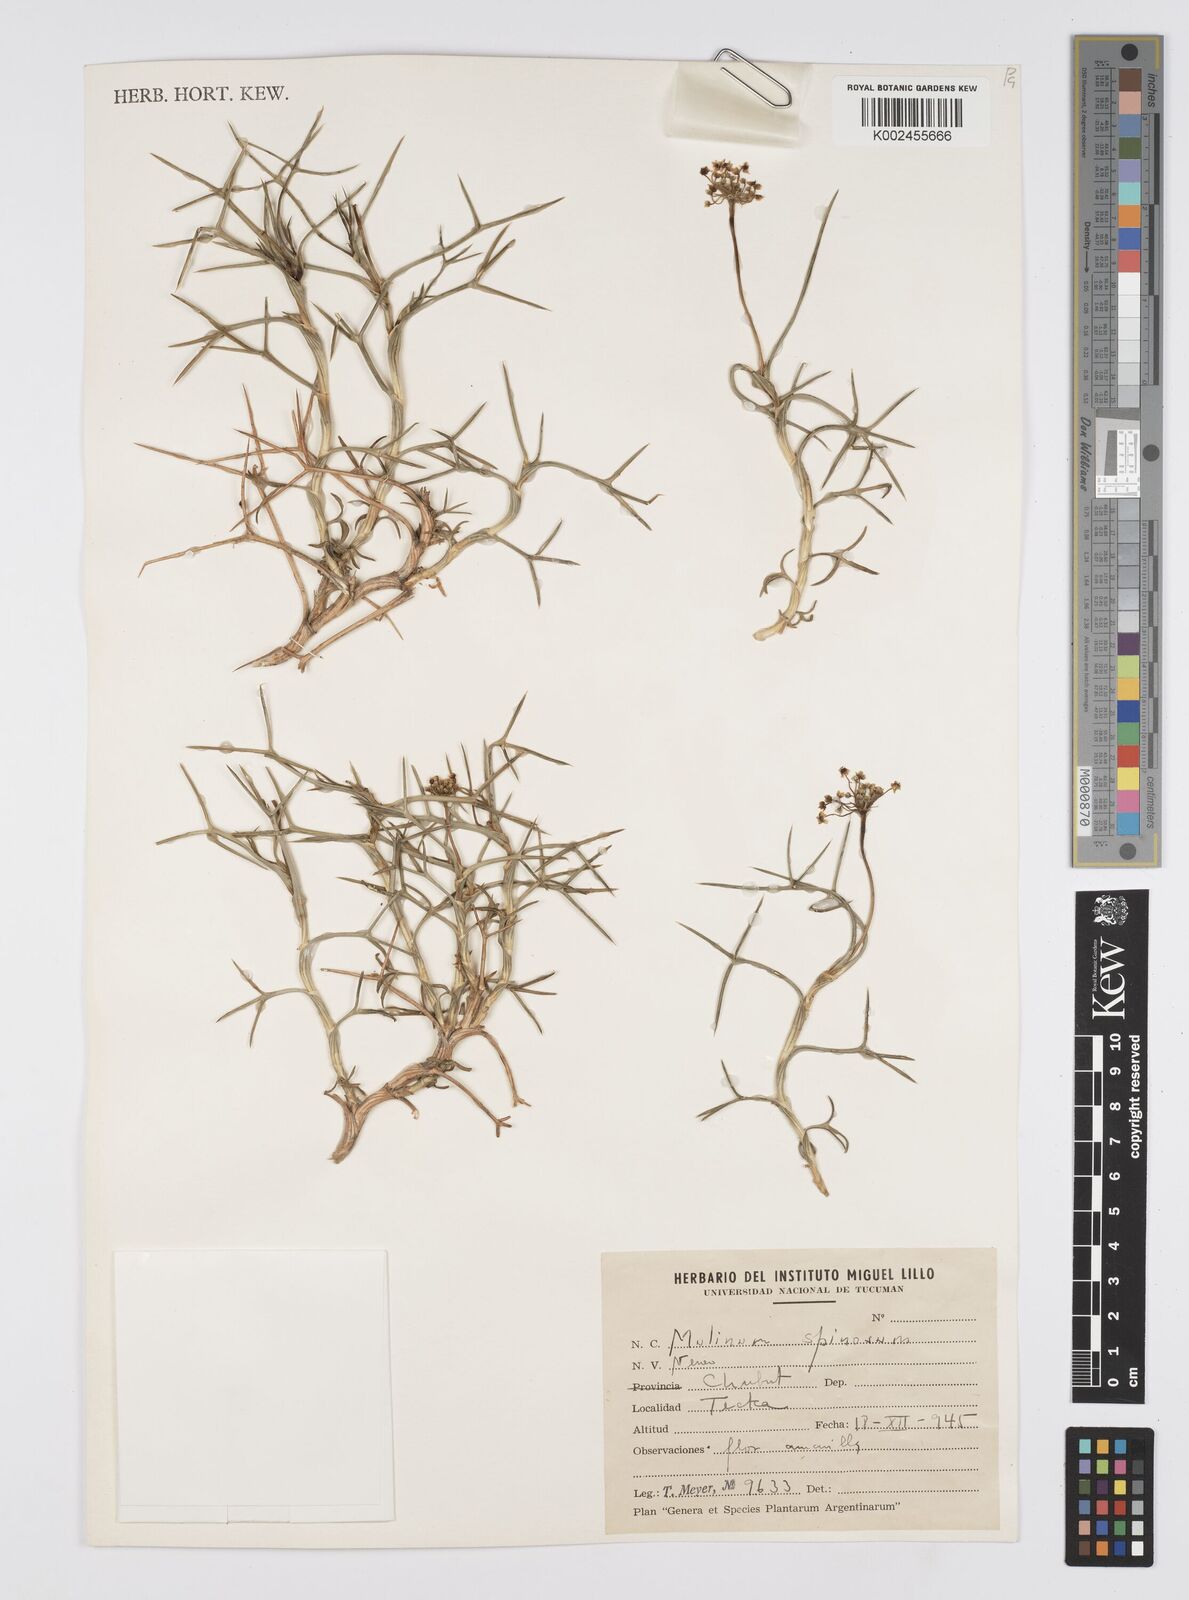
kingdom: Plantae
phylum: Tracheophyta
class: Magnoliopsida
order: Apiales
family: Apiaceae
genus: Azorella
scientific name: Azorella prolifera
